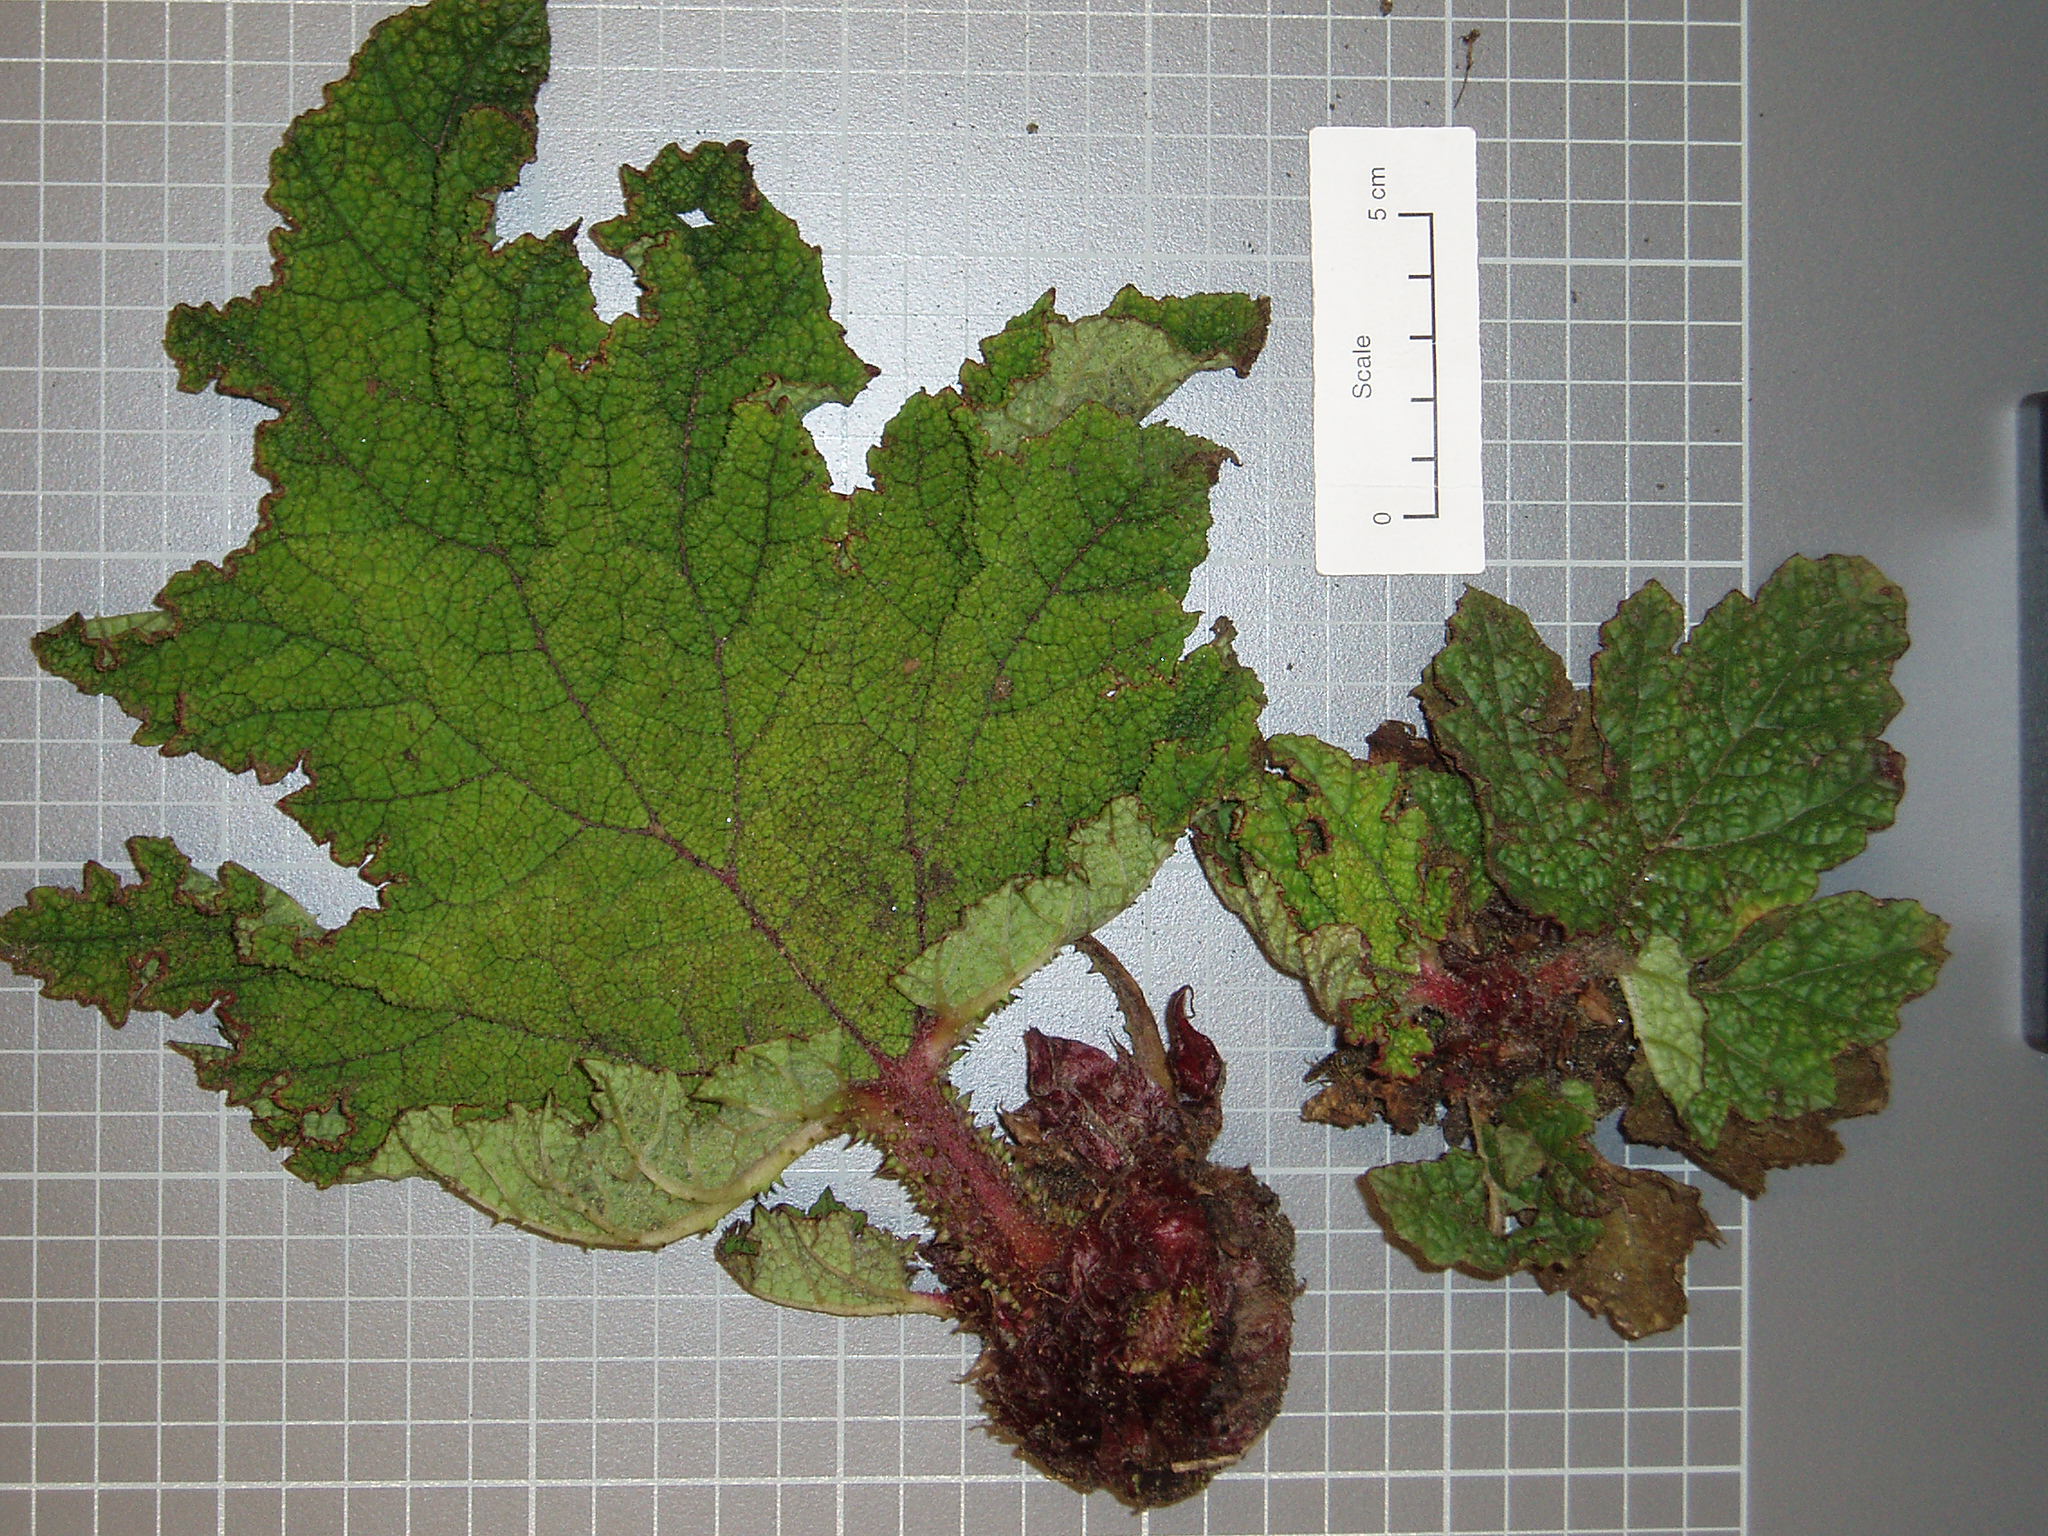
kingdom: Plantae
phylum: Tracheophyta
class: Magnoliopsida
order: Gunnerales
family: Gunneraceae
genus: Gunnera
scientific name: Gunnera tinctoria
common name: Giant-rhubarb
